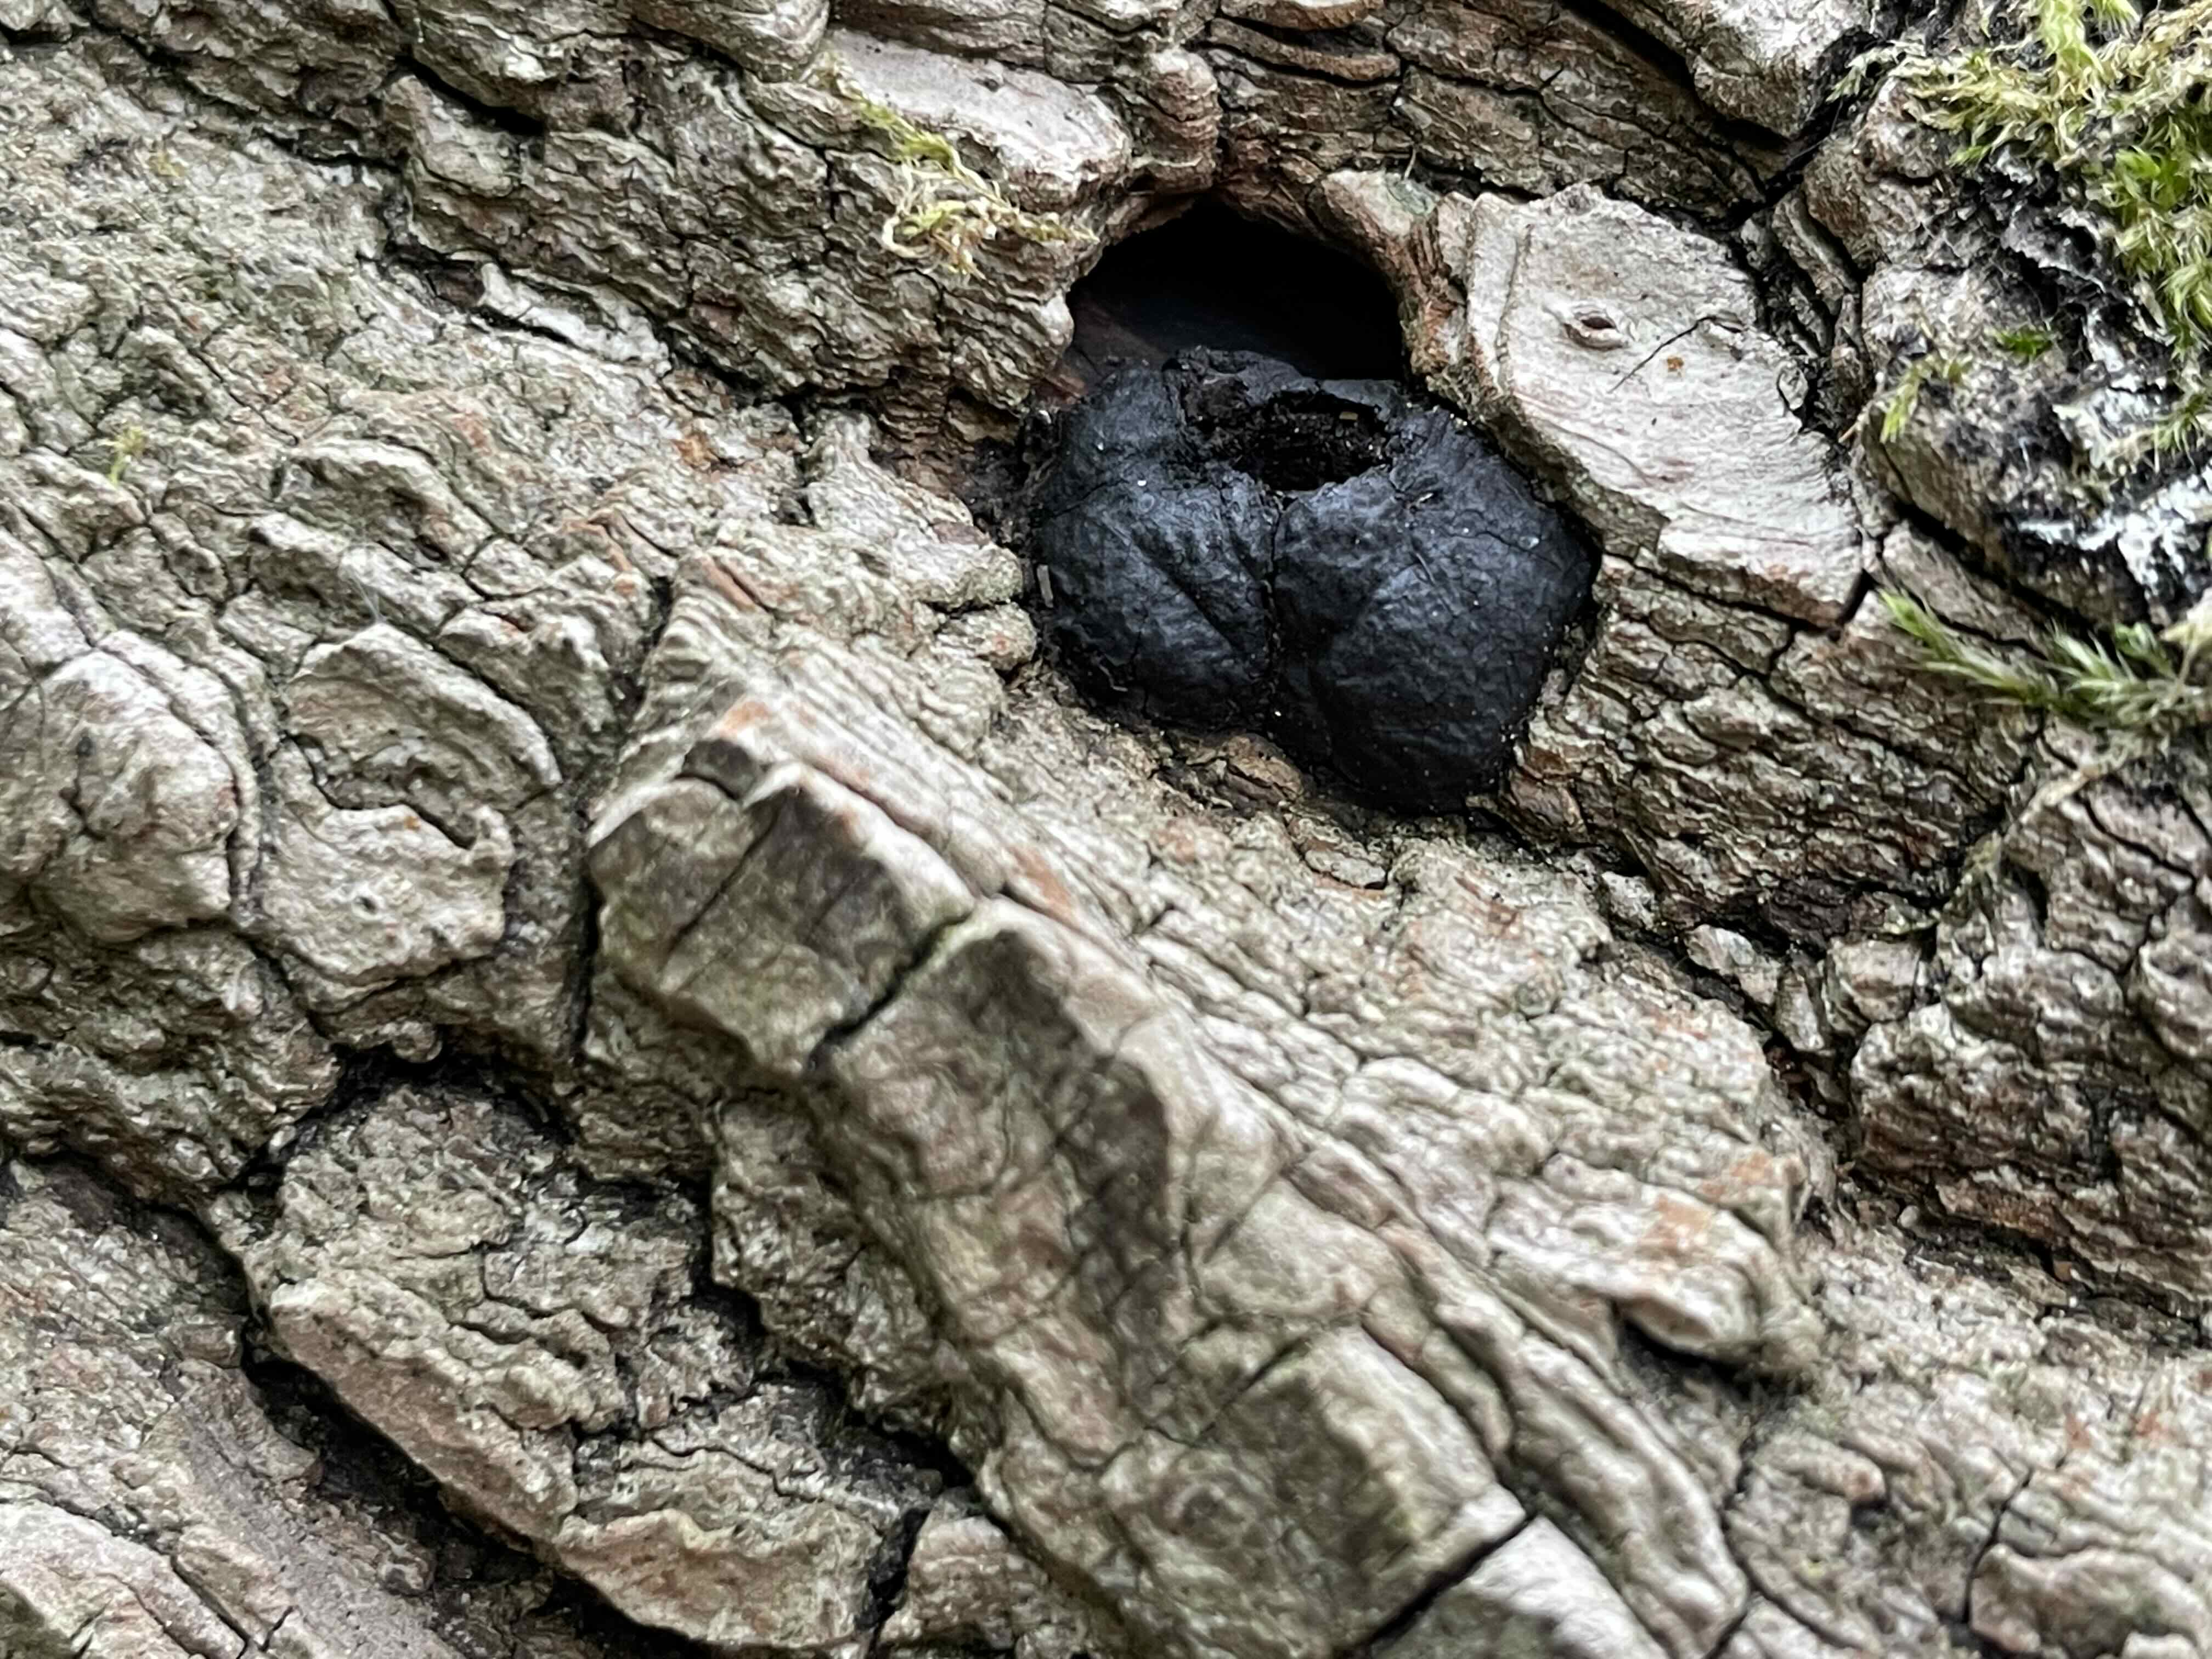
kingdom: Fungi
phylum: Ascomycota
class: Sordariomycetes
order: Xylariales
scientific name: Xylariales
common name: stødsvampordenen
